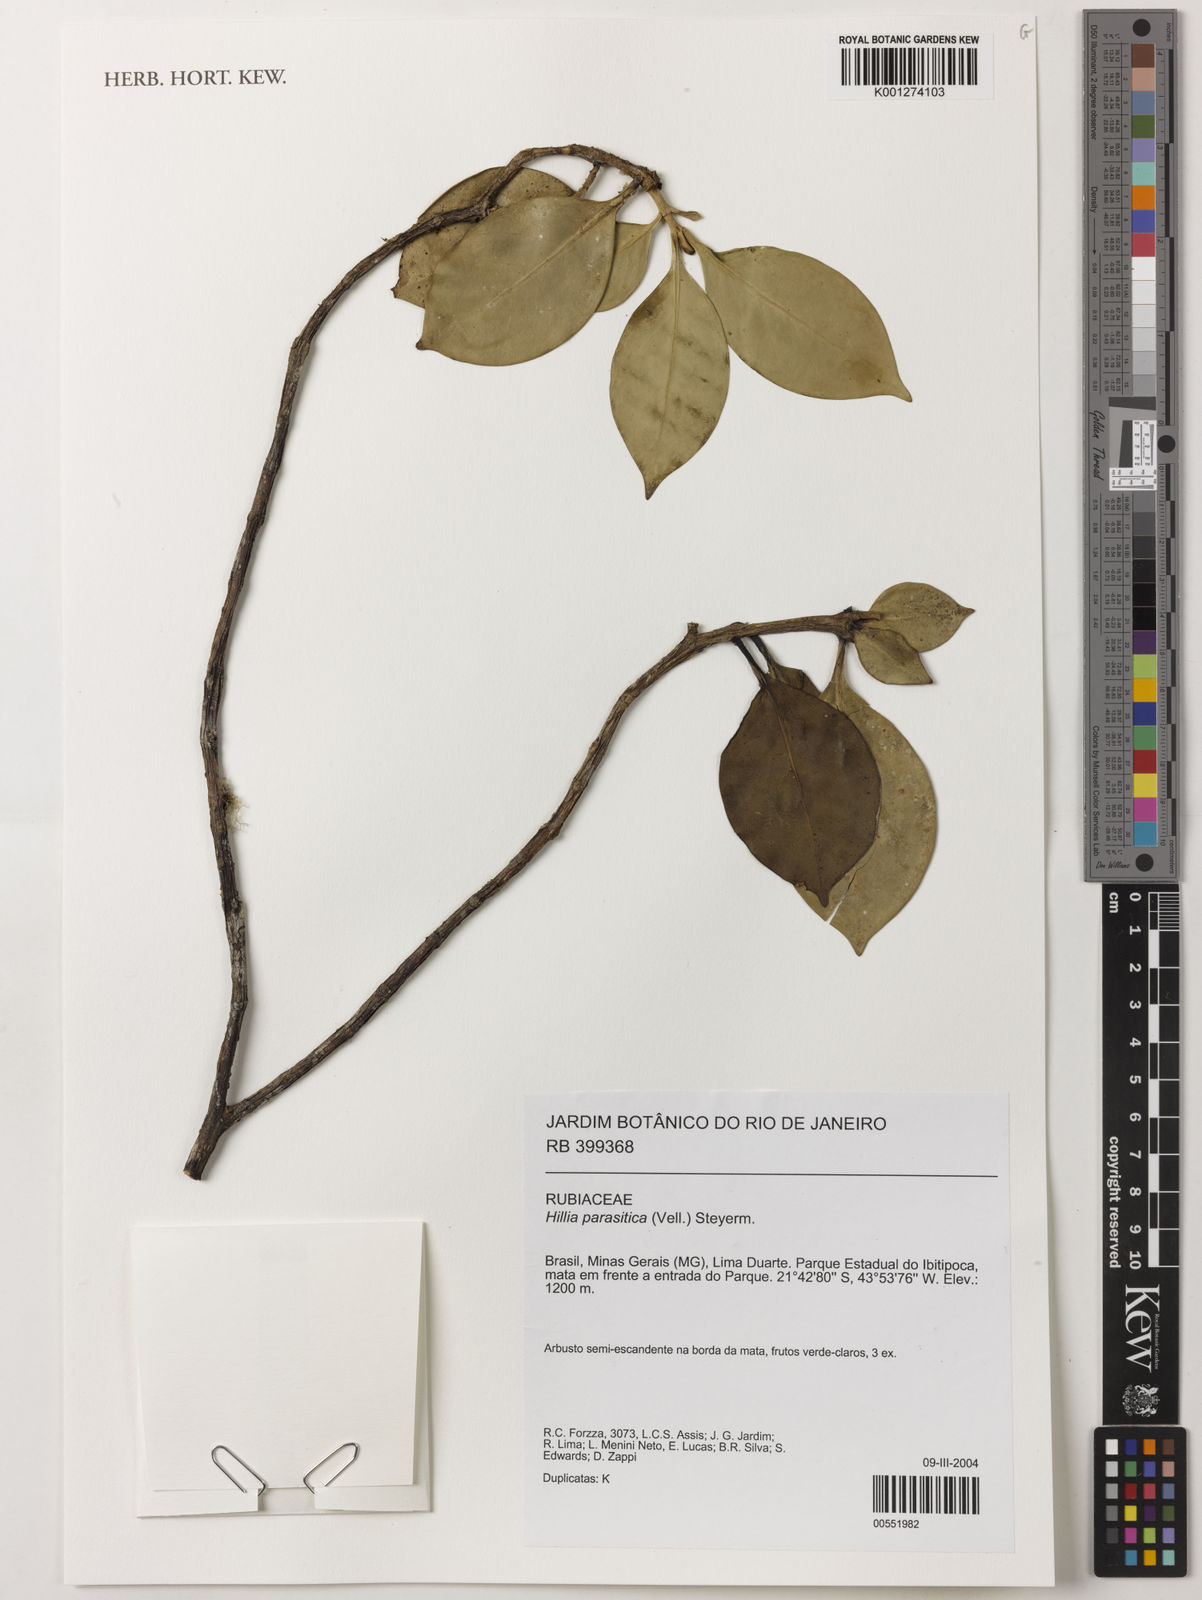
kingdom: Plantae
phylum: Tracheophyta
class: Magnoliopsida
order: Gentianales
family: Rubiaceae
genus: Hillia
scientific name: Hillia parasitica
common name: Morning star
